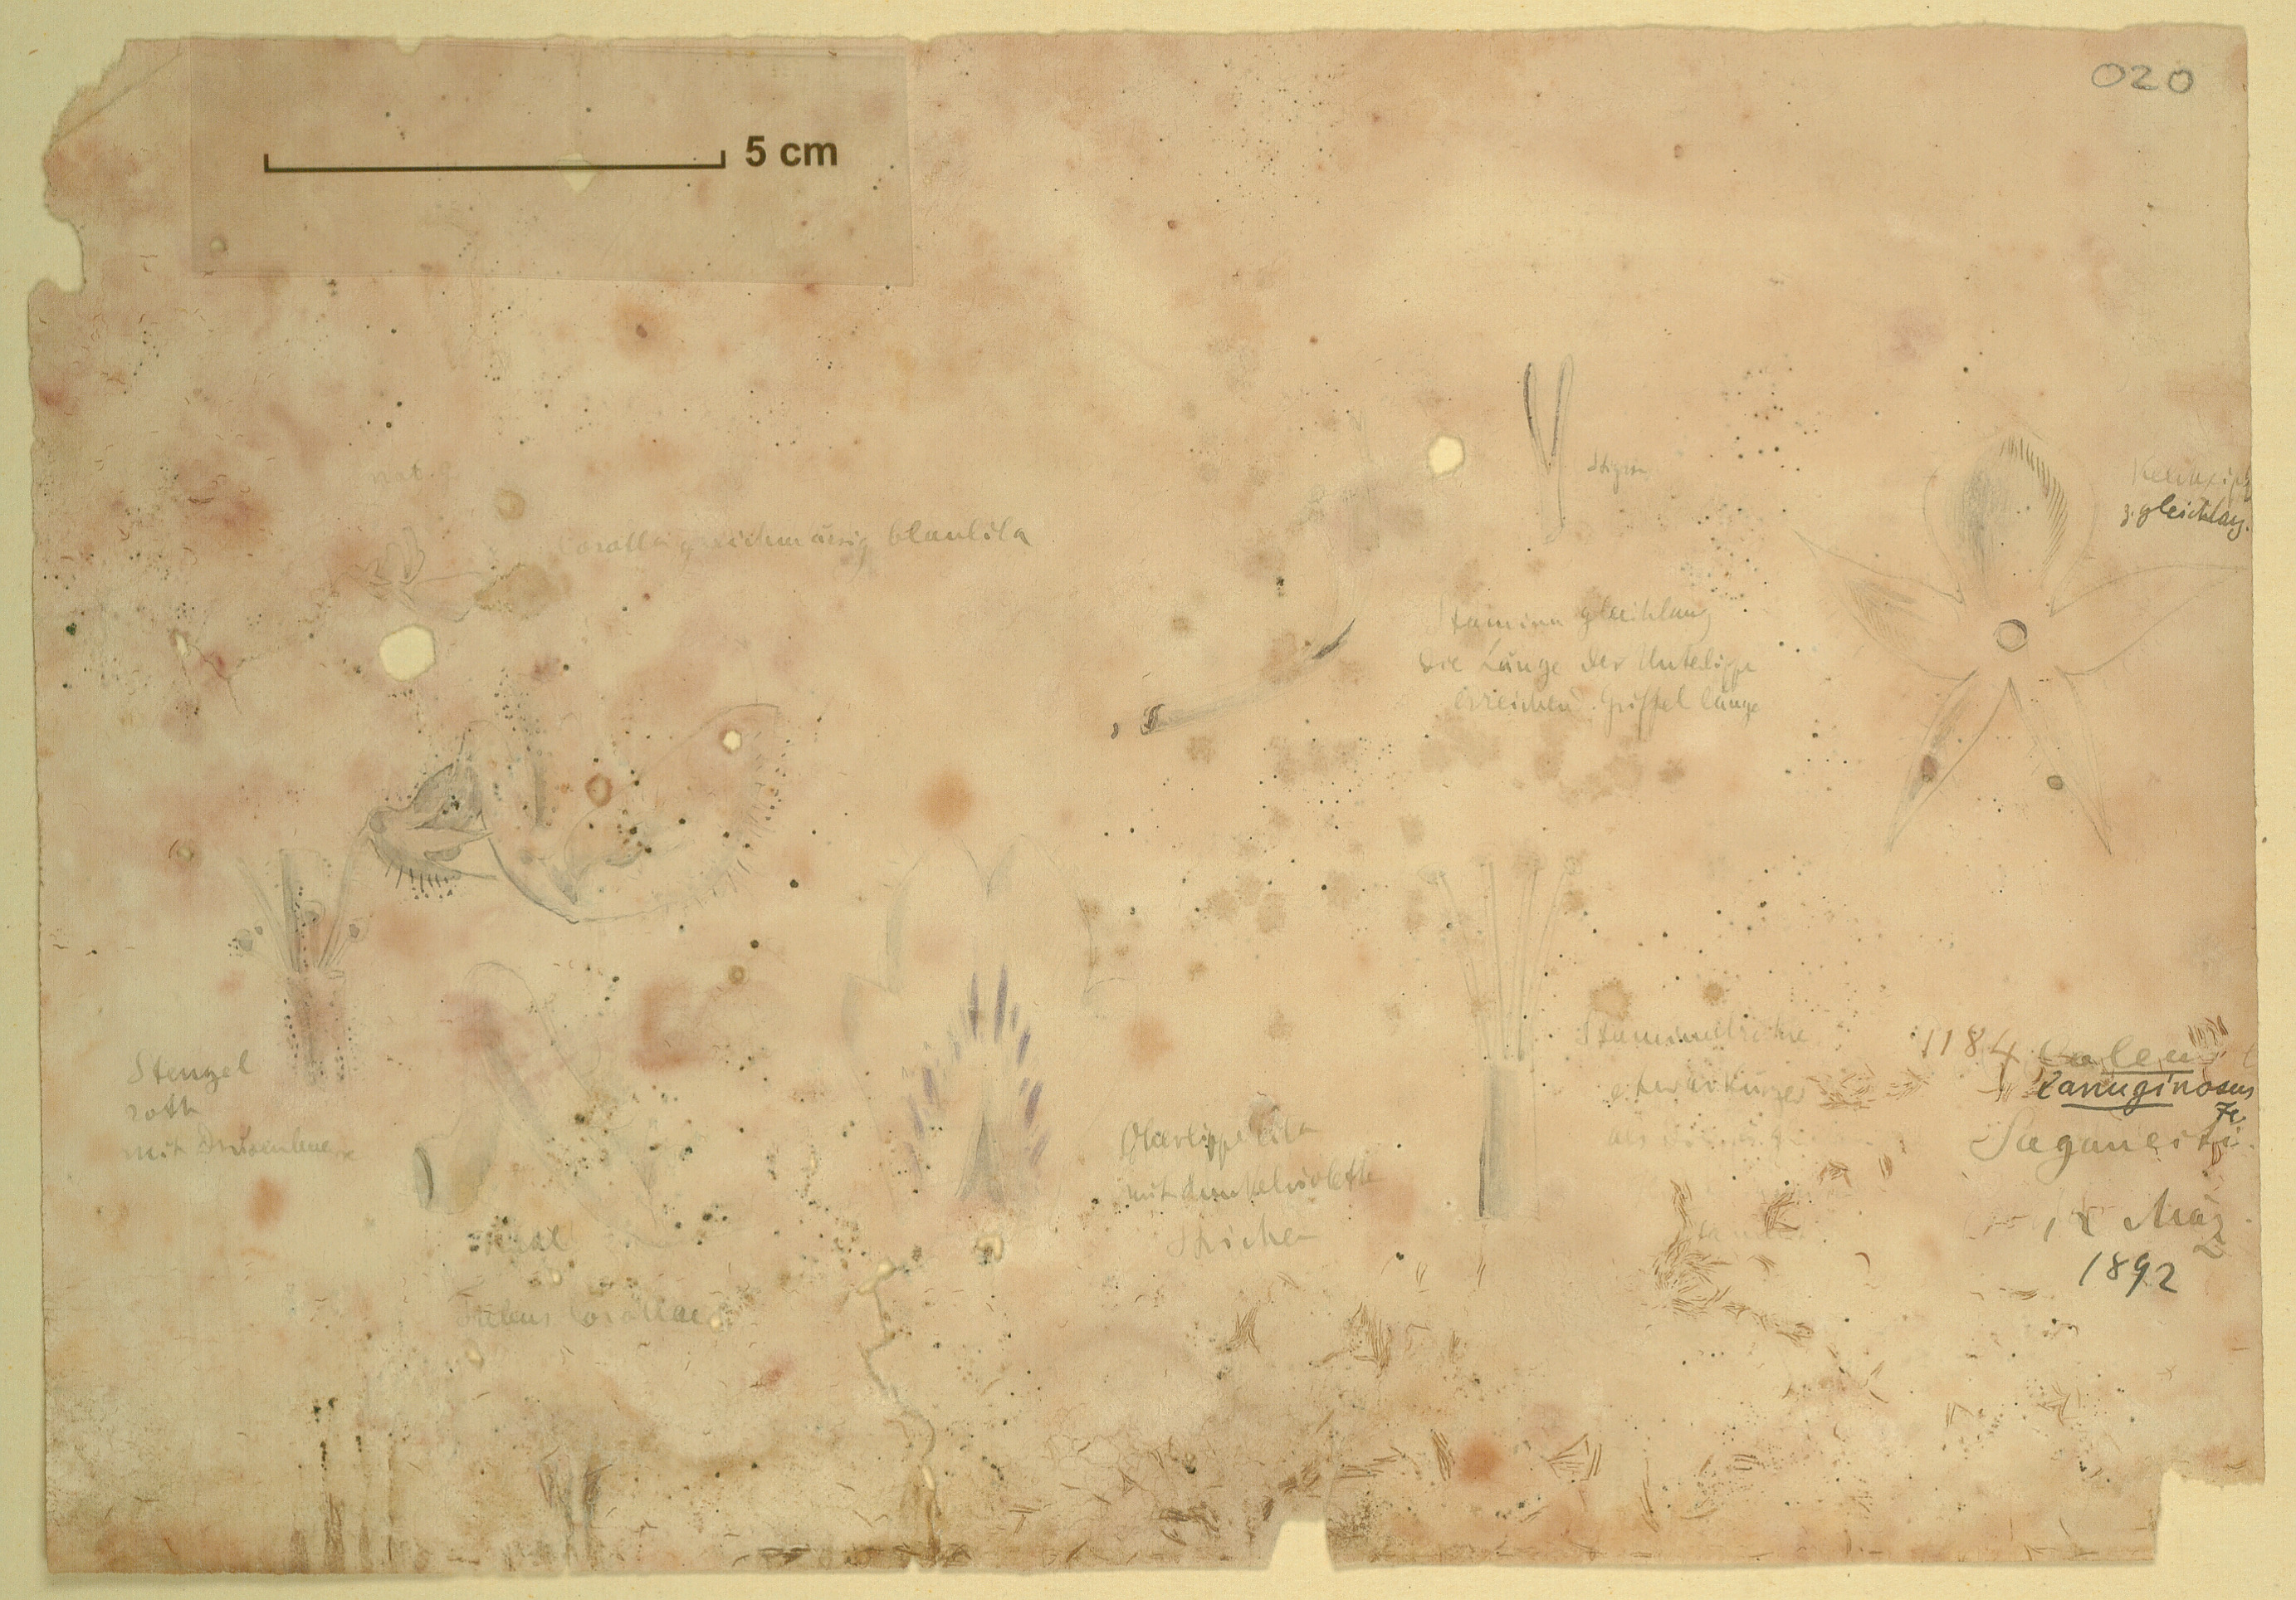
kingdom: Plantae
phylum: Tracheophyta
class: Magnoliopsida
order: Lamiales
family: Lamiaceae
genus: Coleus
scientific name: Coleus lanuginosus
